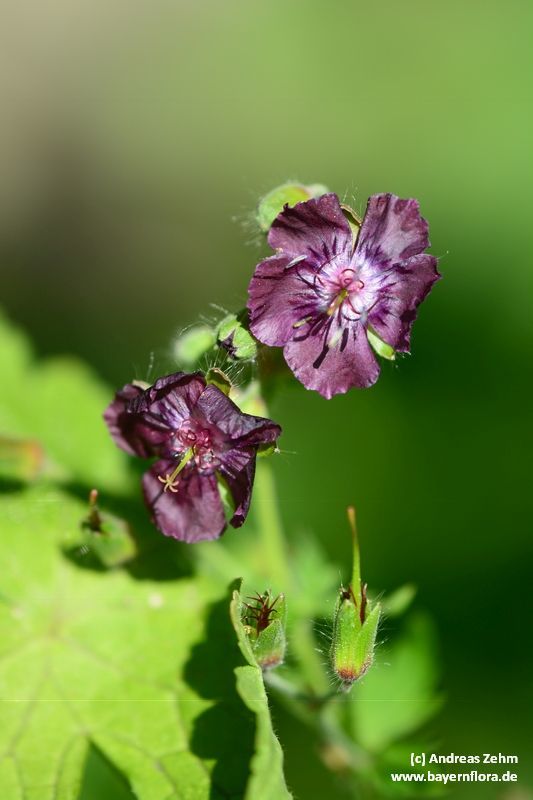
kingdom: Plantae
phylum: Tracheophyta
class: Magnoliopsida
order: Geraniales
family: Geraniaceae
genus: Geranium
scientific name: Geranium phaeum
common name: Dusky crane's-bill
